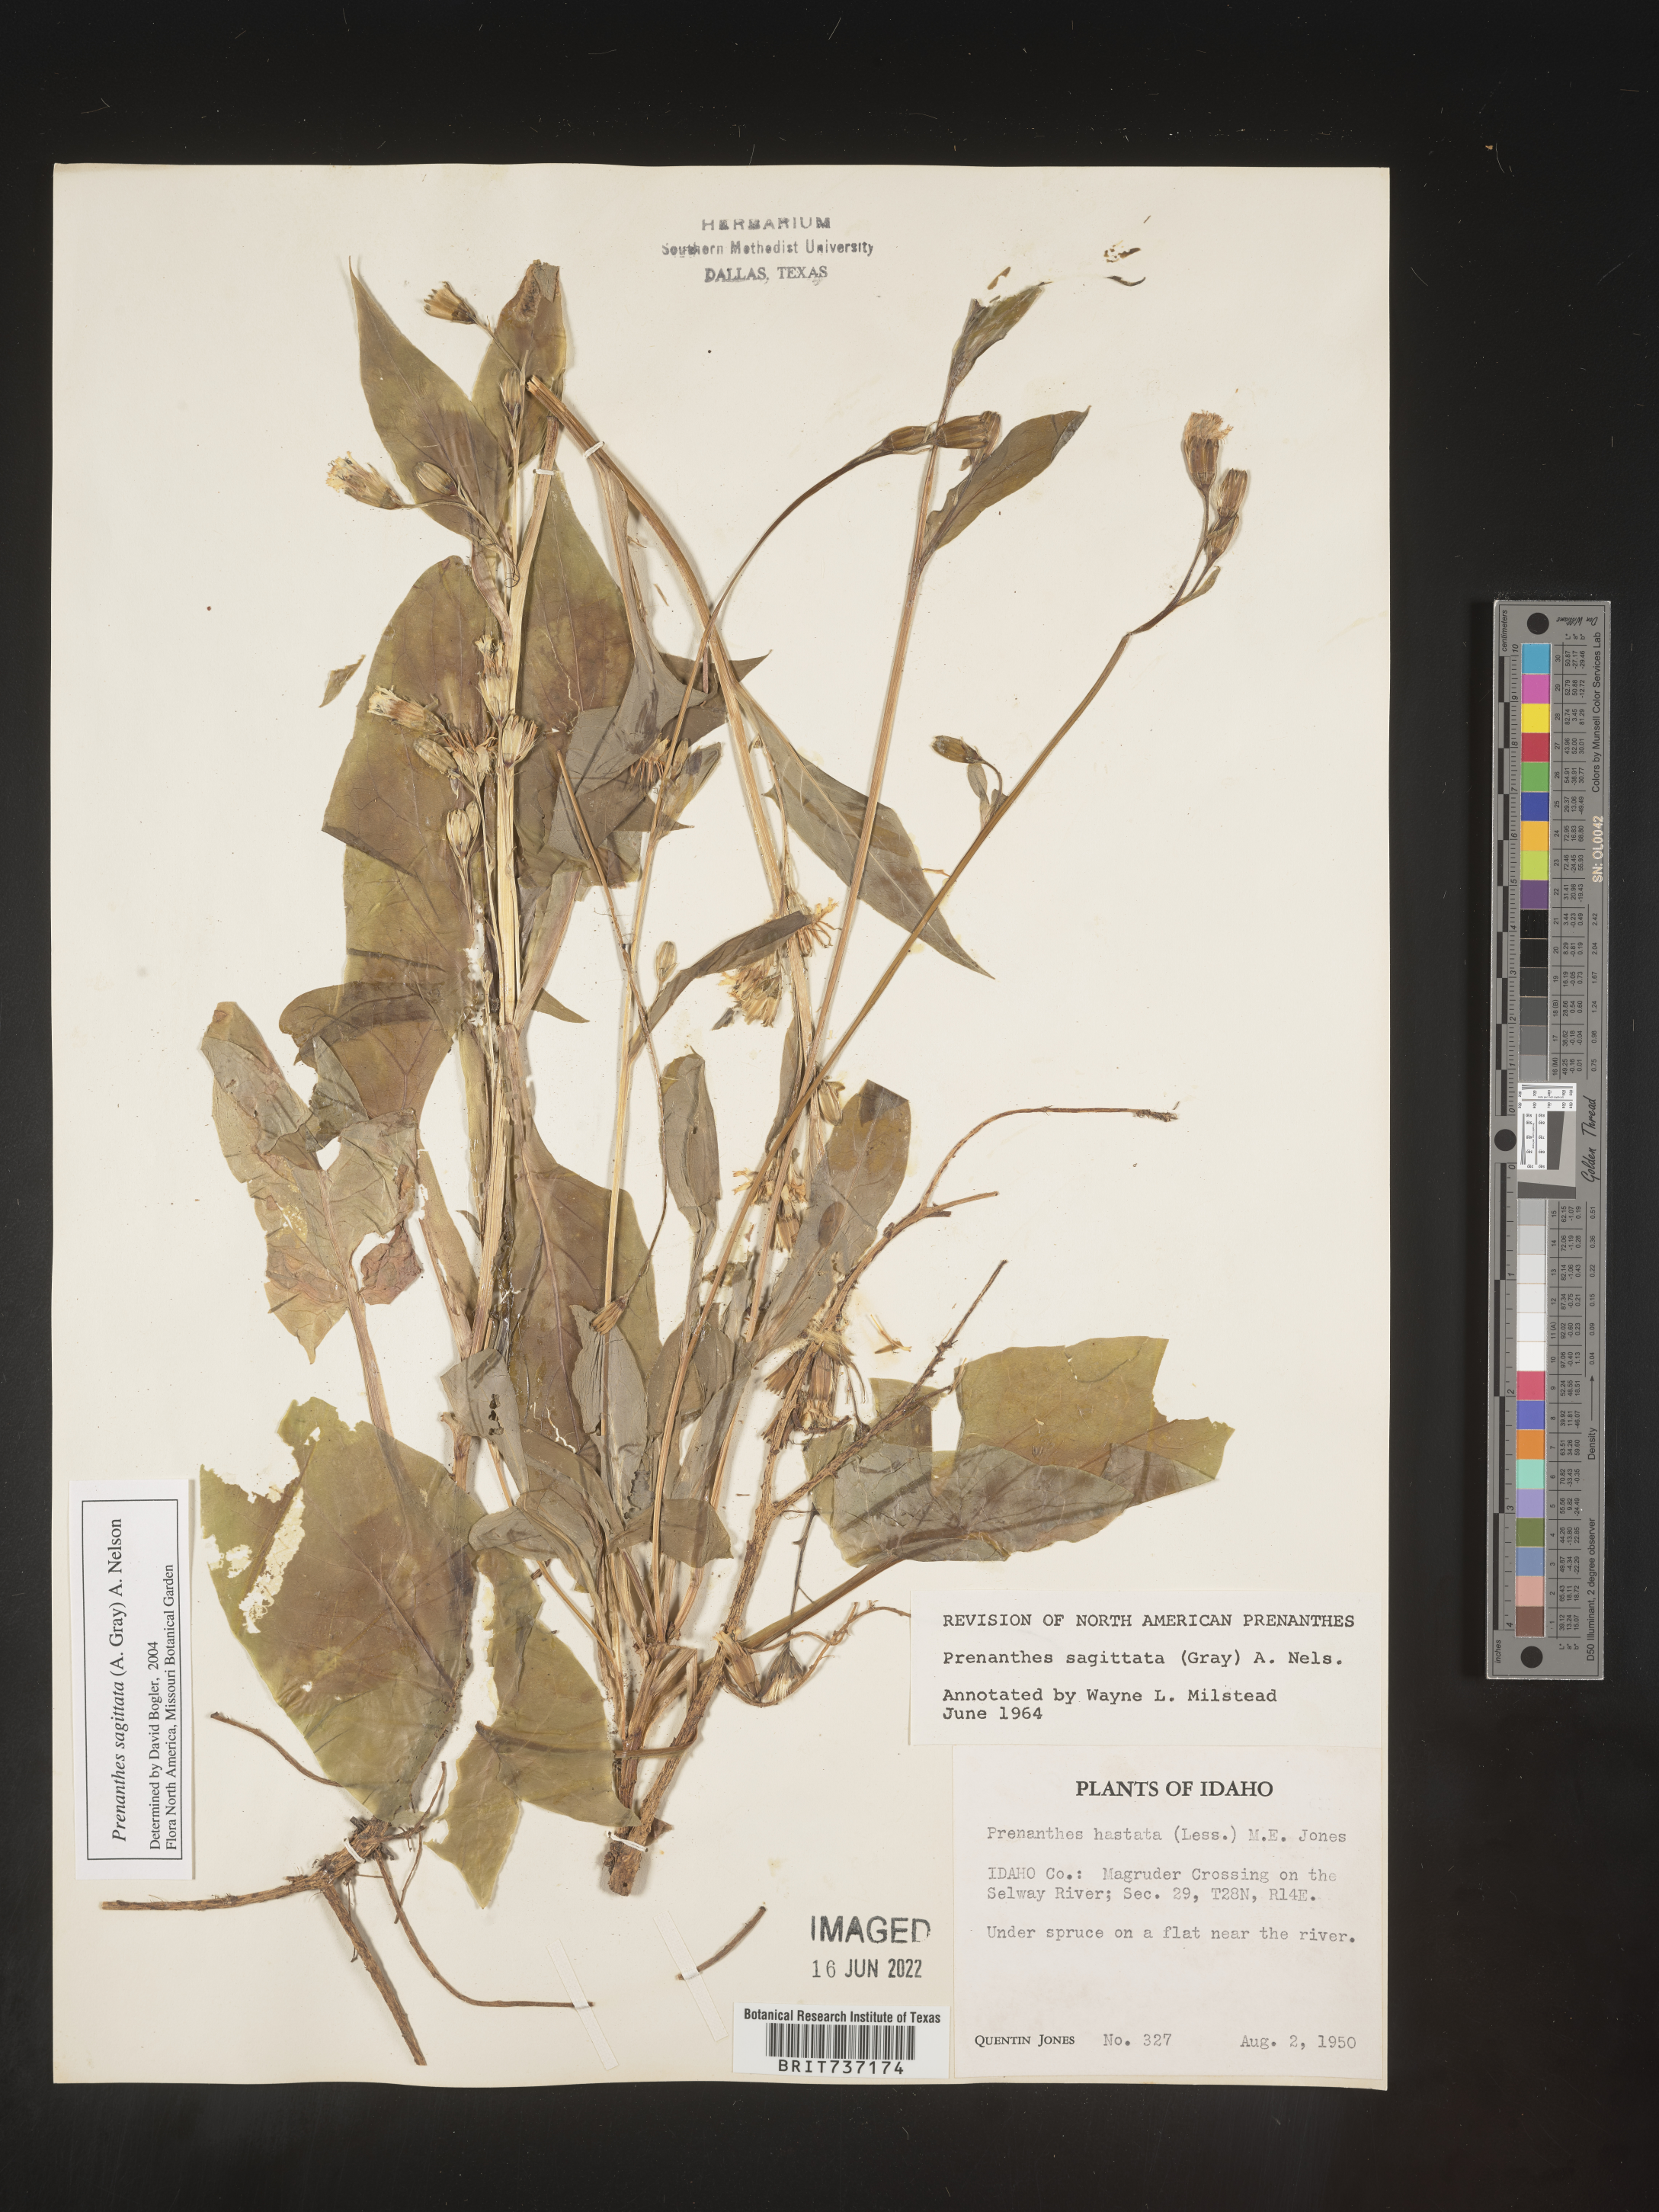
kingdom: Plantae
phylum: Tracheophyta
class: Magnoliopsida
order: Asterales
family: Asteraceae
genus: Nabalus
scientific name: Nabalus sagittatus
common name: Arrowleaf snakeroot
